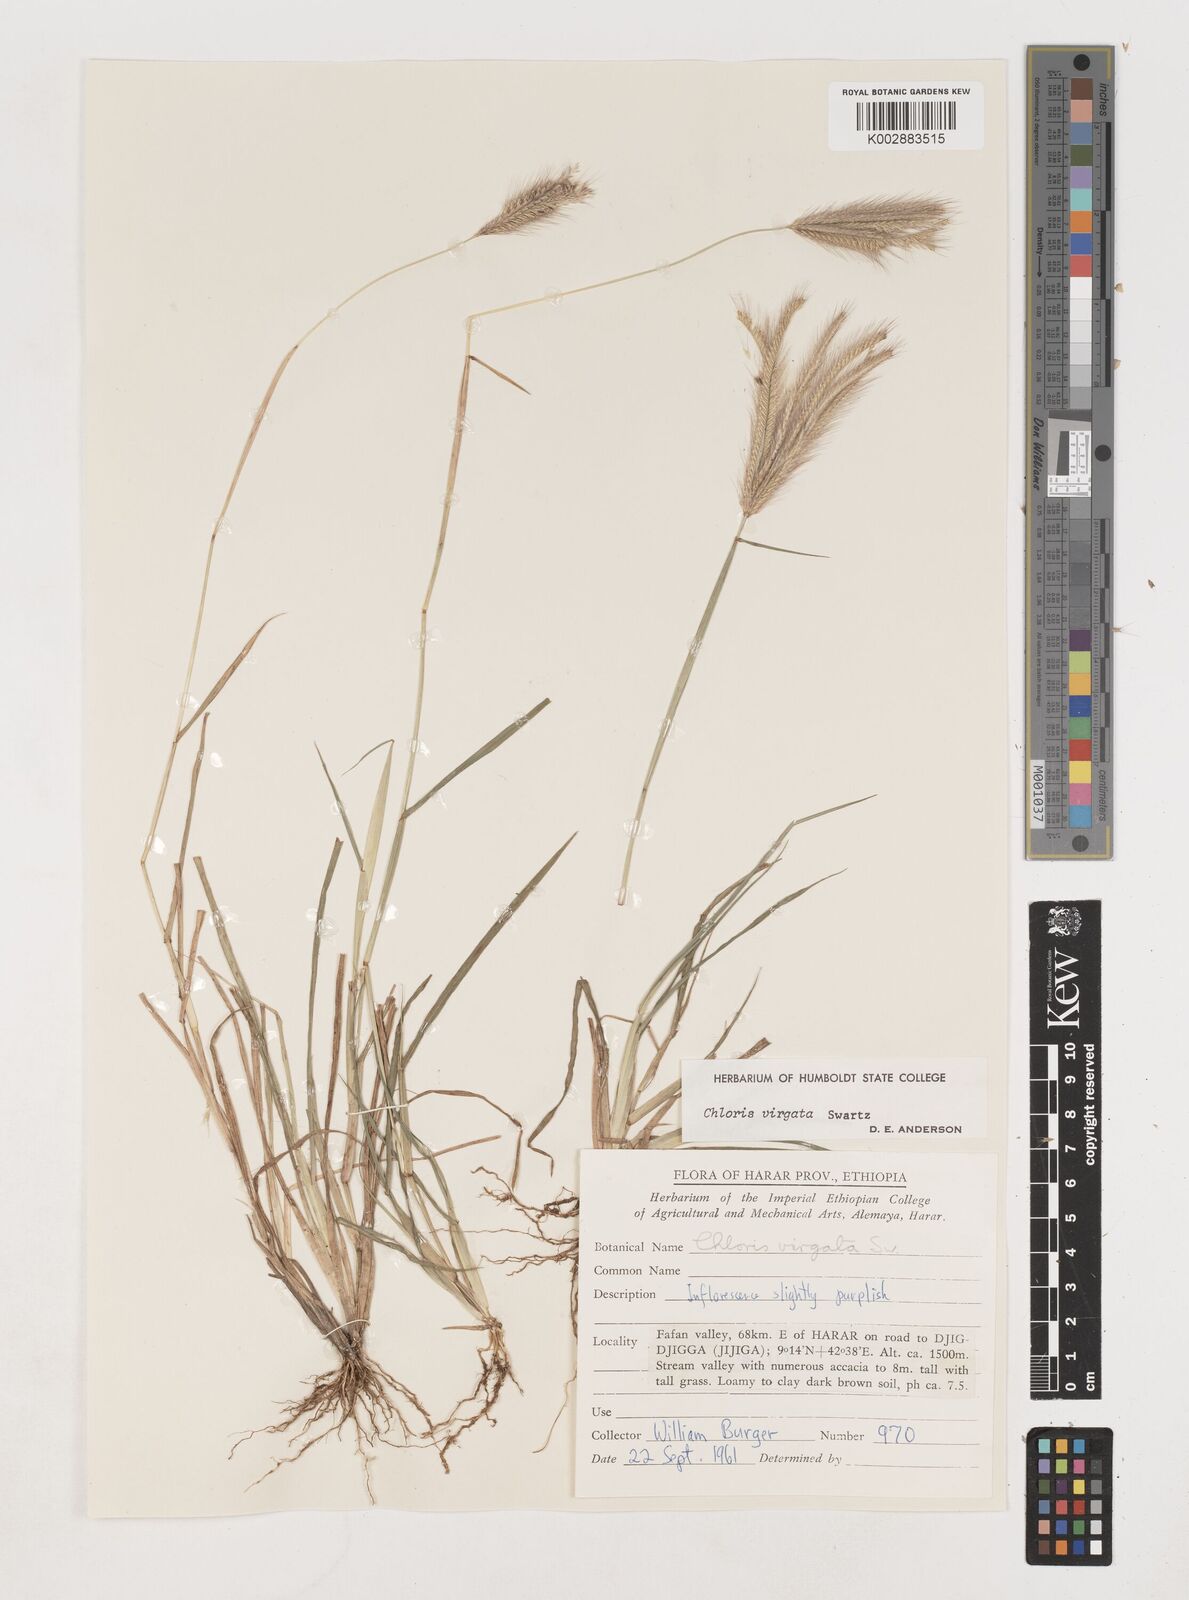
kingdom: Plantae
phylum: Tracheophyta
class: Liliopsida
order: Poales
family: Poaceae
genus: Chloris
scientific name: Chloris virgata
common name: Feathery rhodes-grass
